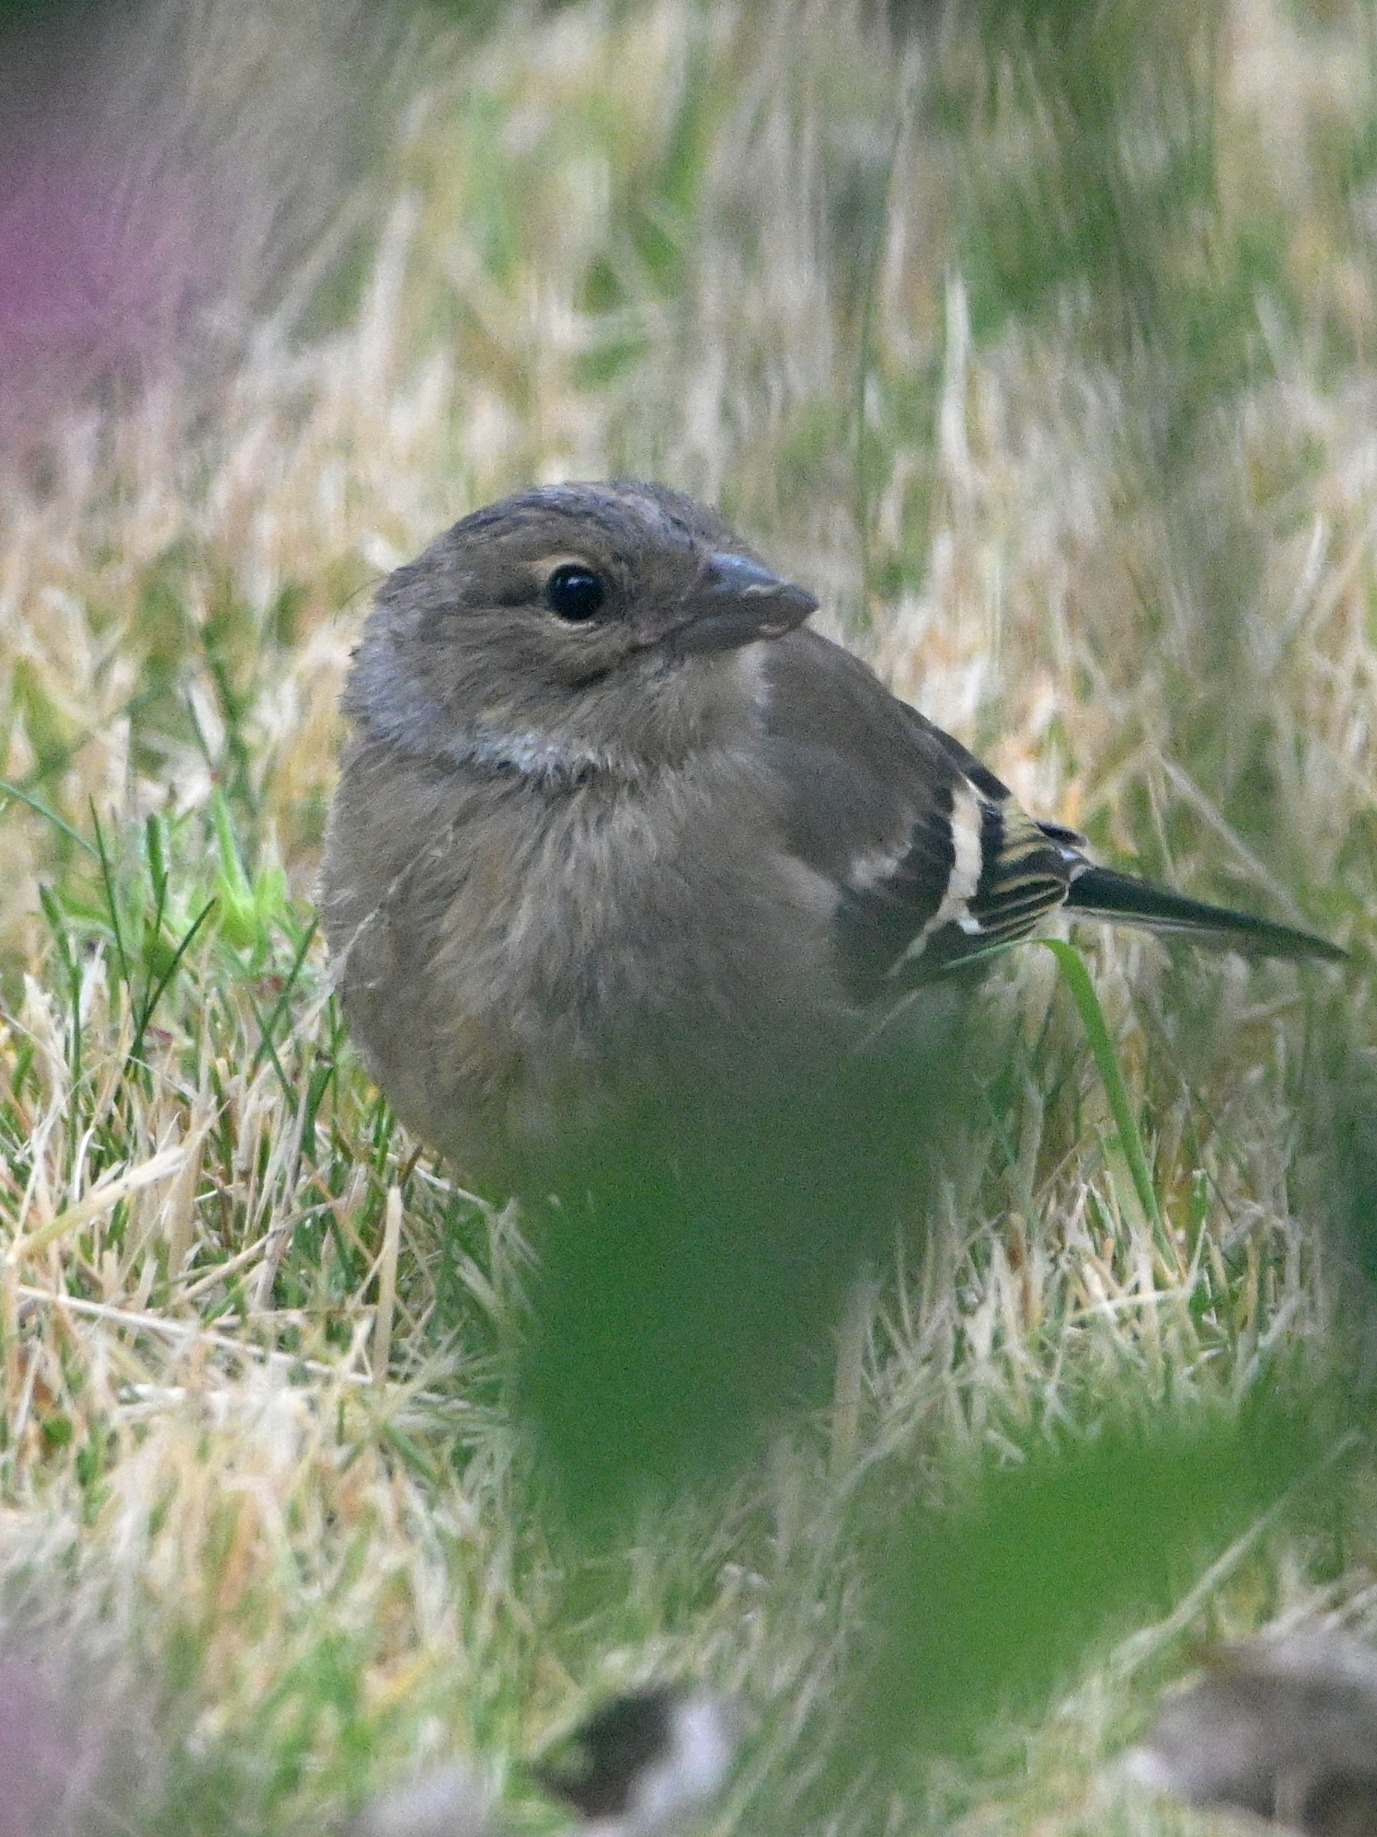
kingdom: Animalia
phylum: Chordata
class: Aves
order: Passeriformes
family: Fringillidae
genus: Fringilla
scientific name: Fringilla coelebs
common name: Bogfinke
